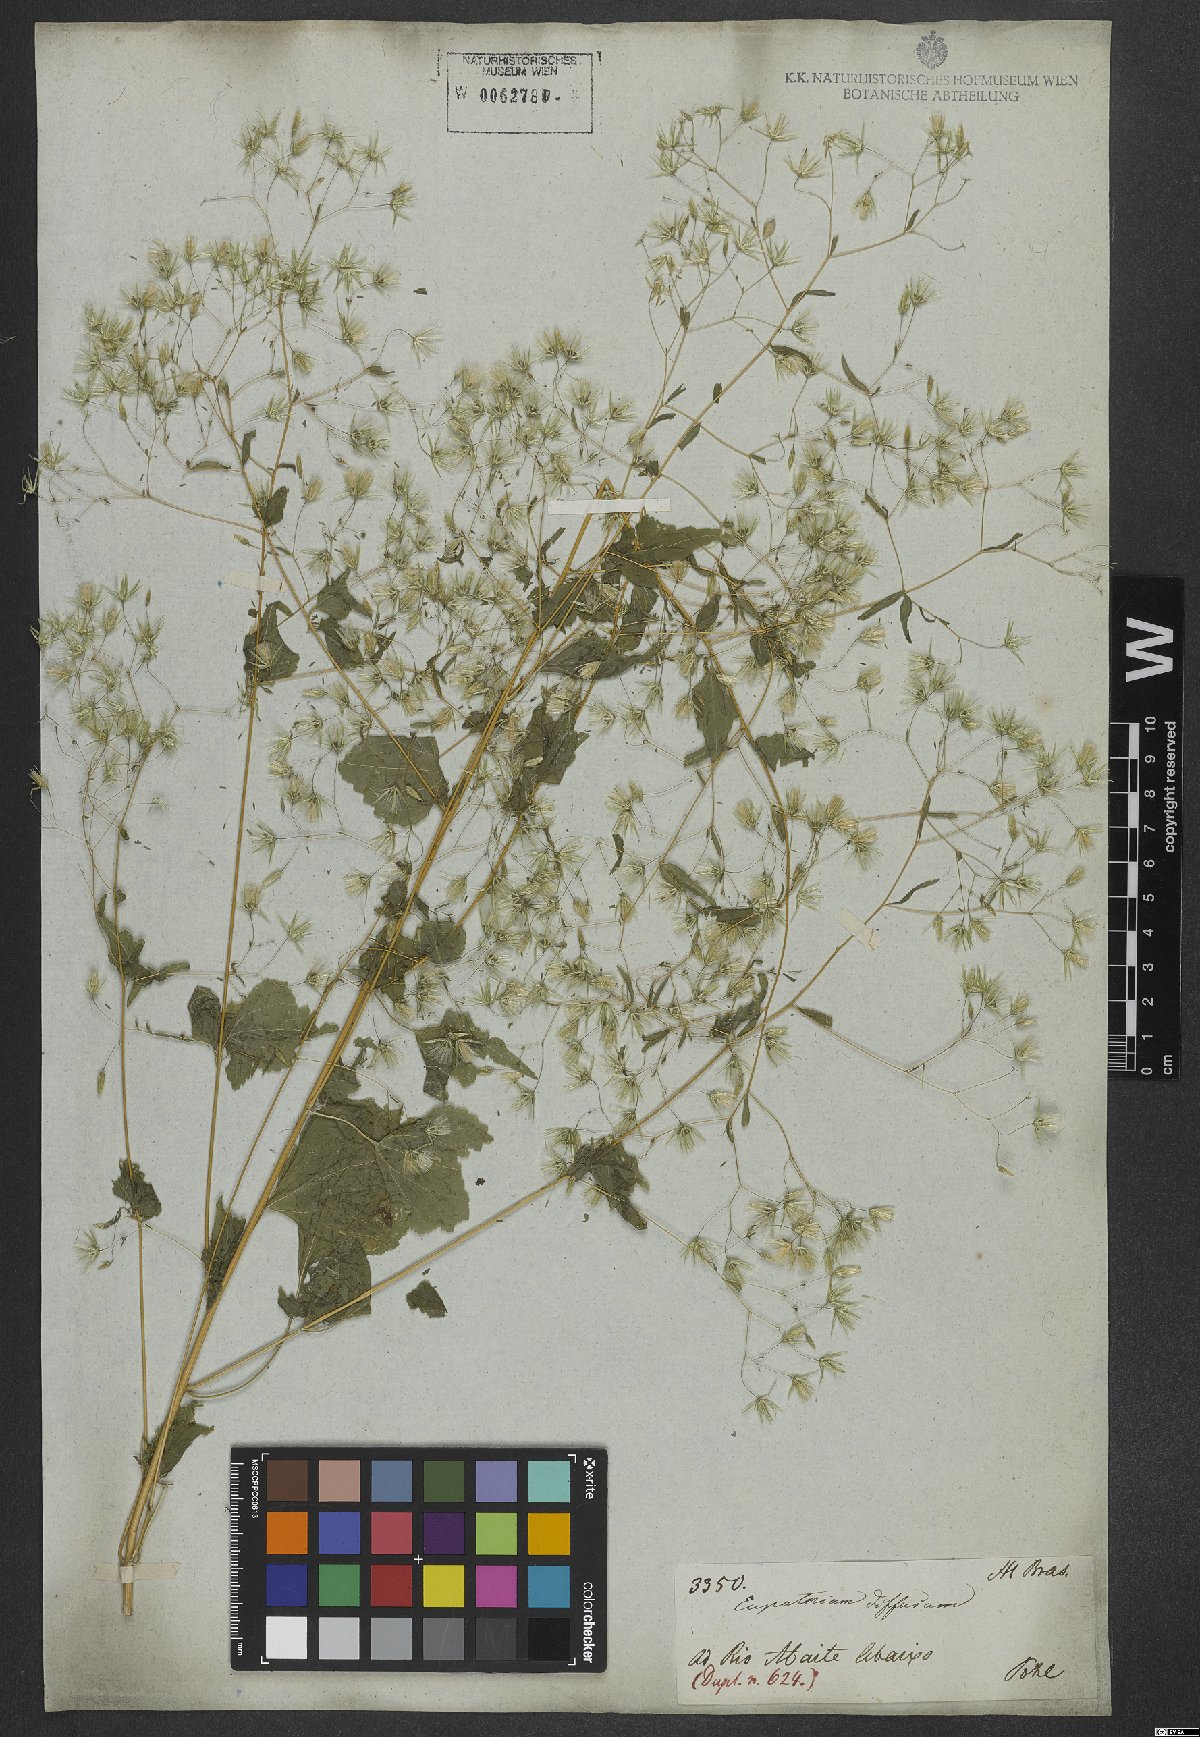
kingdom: Plantae
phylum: Tracheophyta
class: Magnoliopsida
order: Asterales
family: Asteraceae
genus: Brickellia
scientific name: Brickellia diffusa
